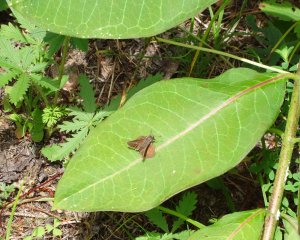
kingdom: Animalia
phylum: Arthropoda
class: Insecta
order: Lepidoptera
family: Hesperiidae
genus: Euphyes
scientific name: Euphyes vestris
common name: Dun Skipper
